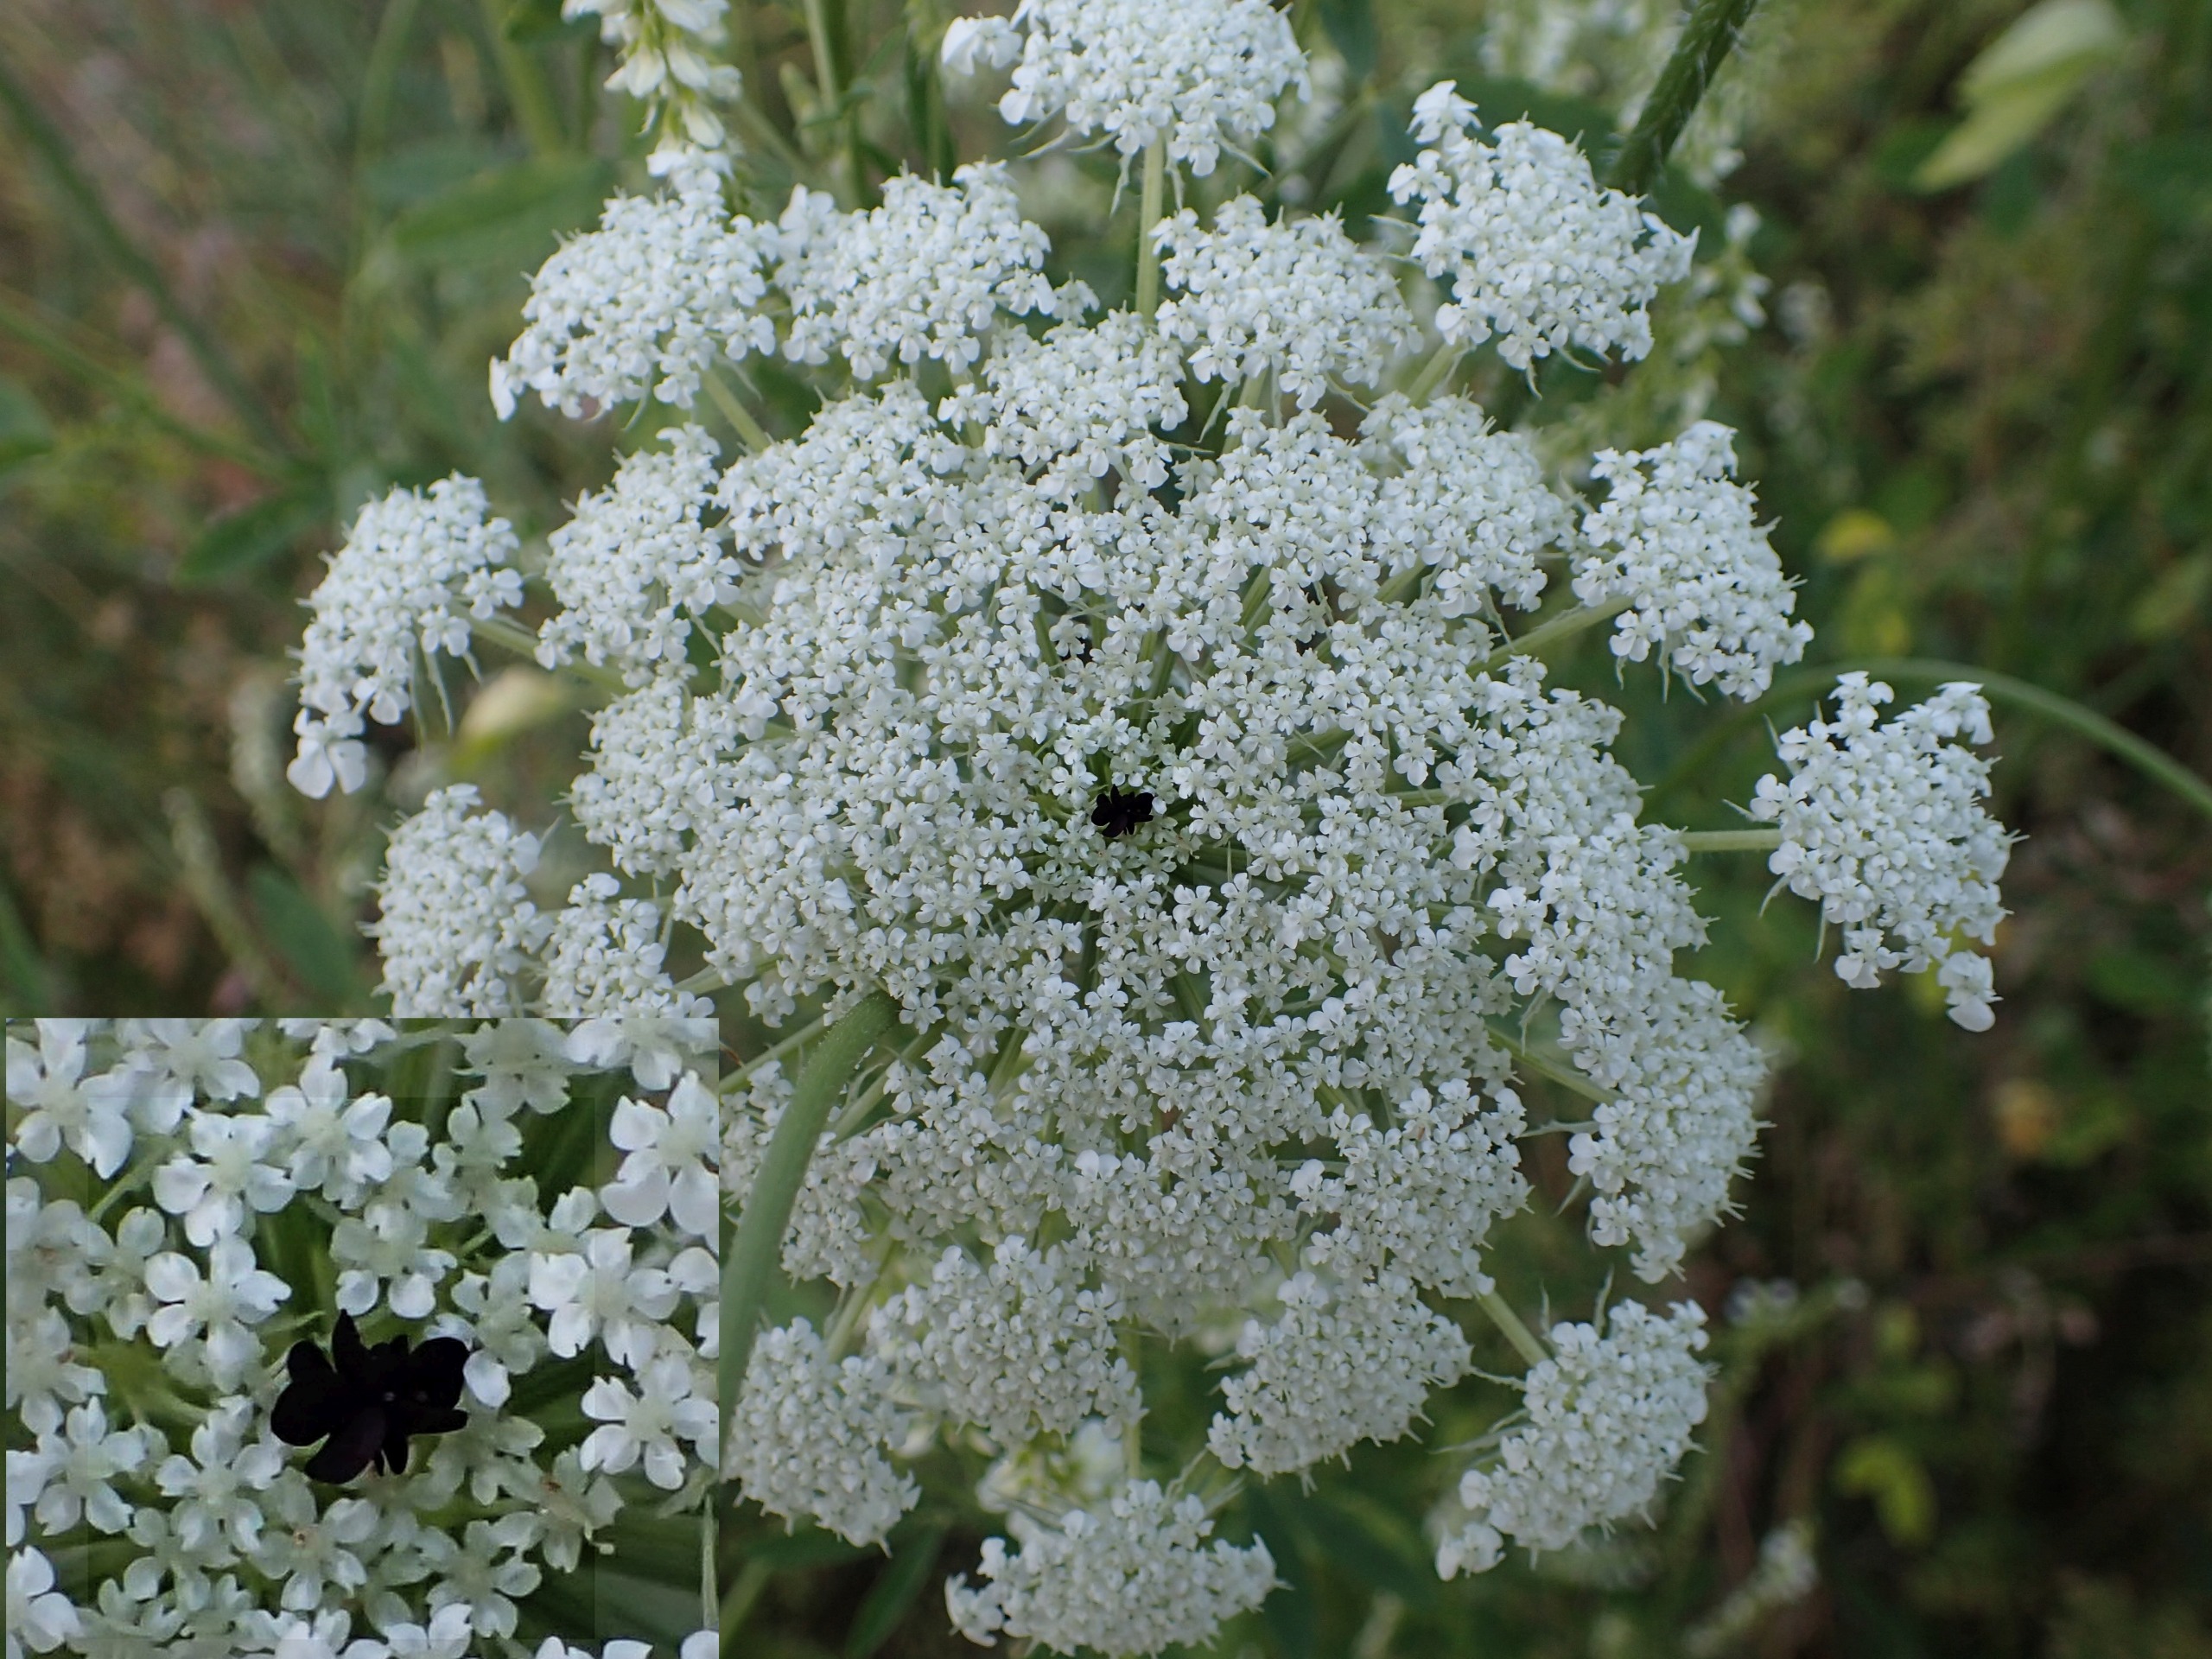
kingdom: Plantae
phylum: Tracheophyta
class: Magnoliopsida
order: Apiales
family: Apiaceae
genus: Daucus
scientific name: Daucus carota
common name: Gulerod
